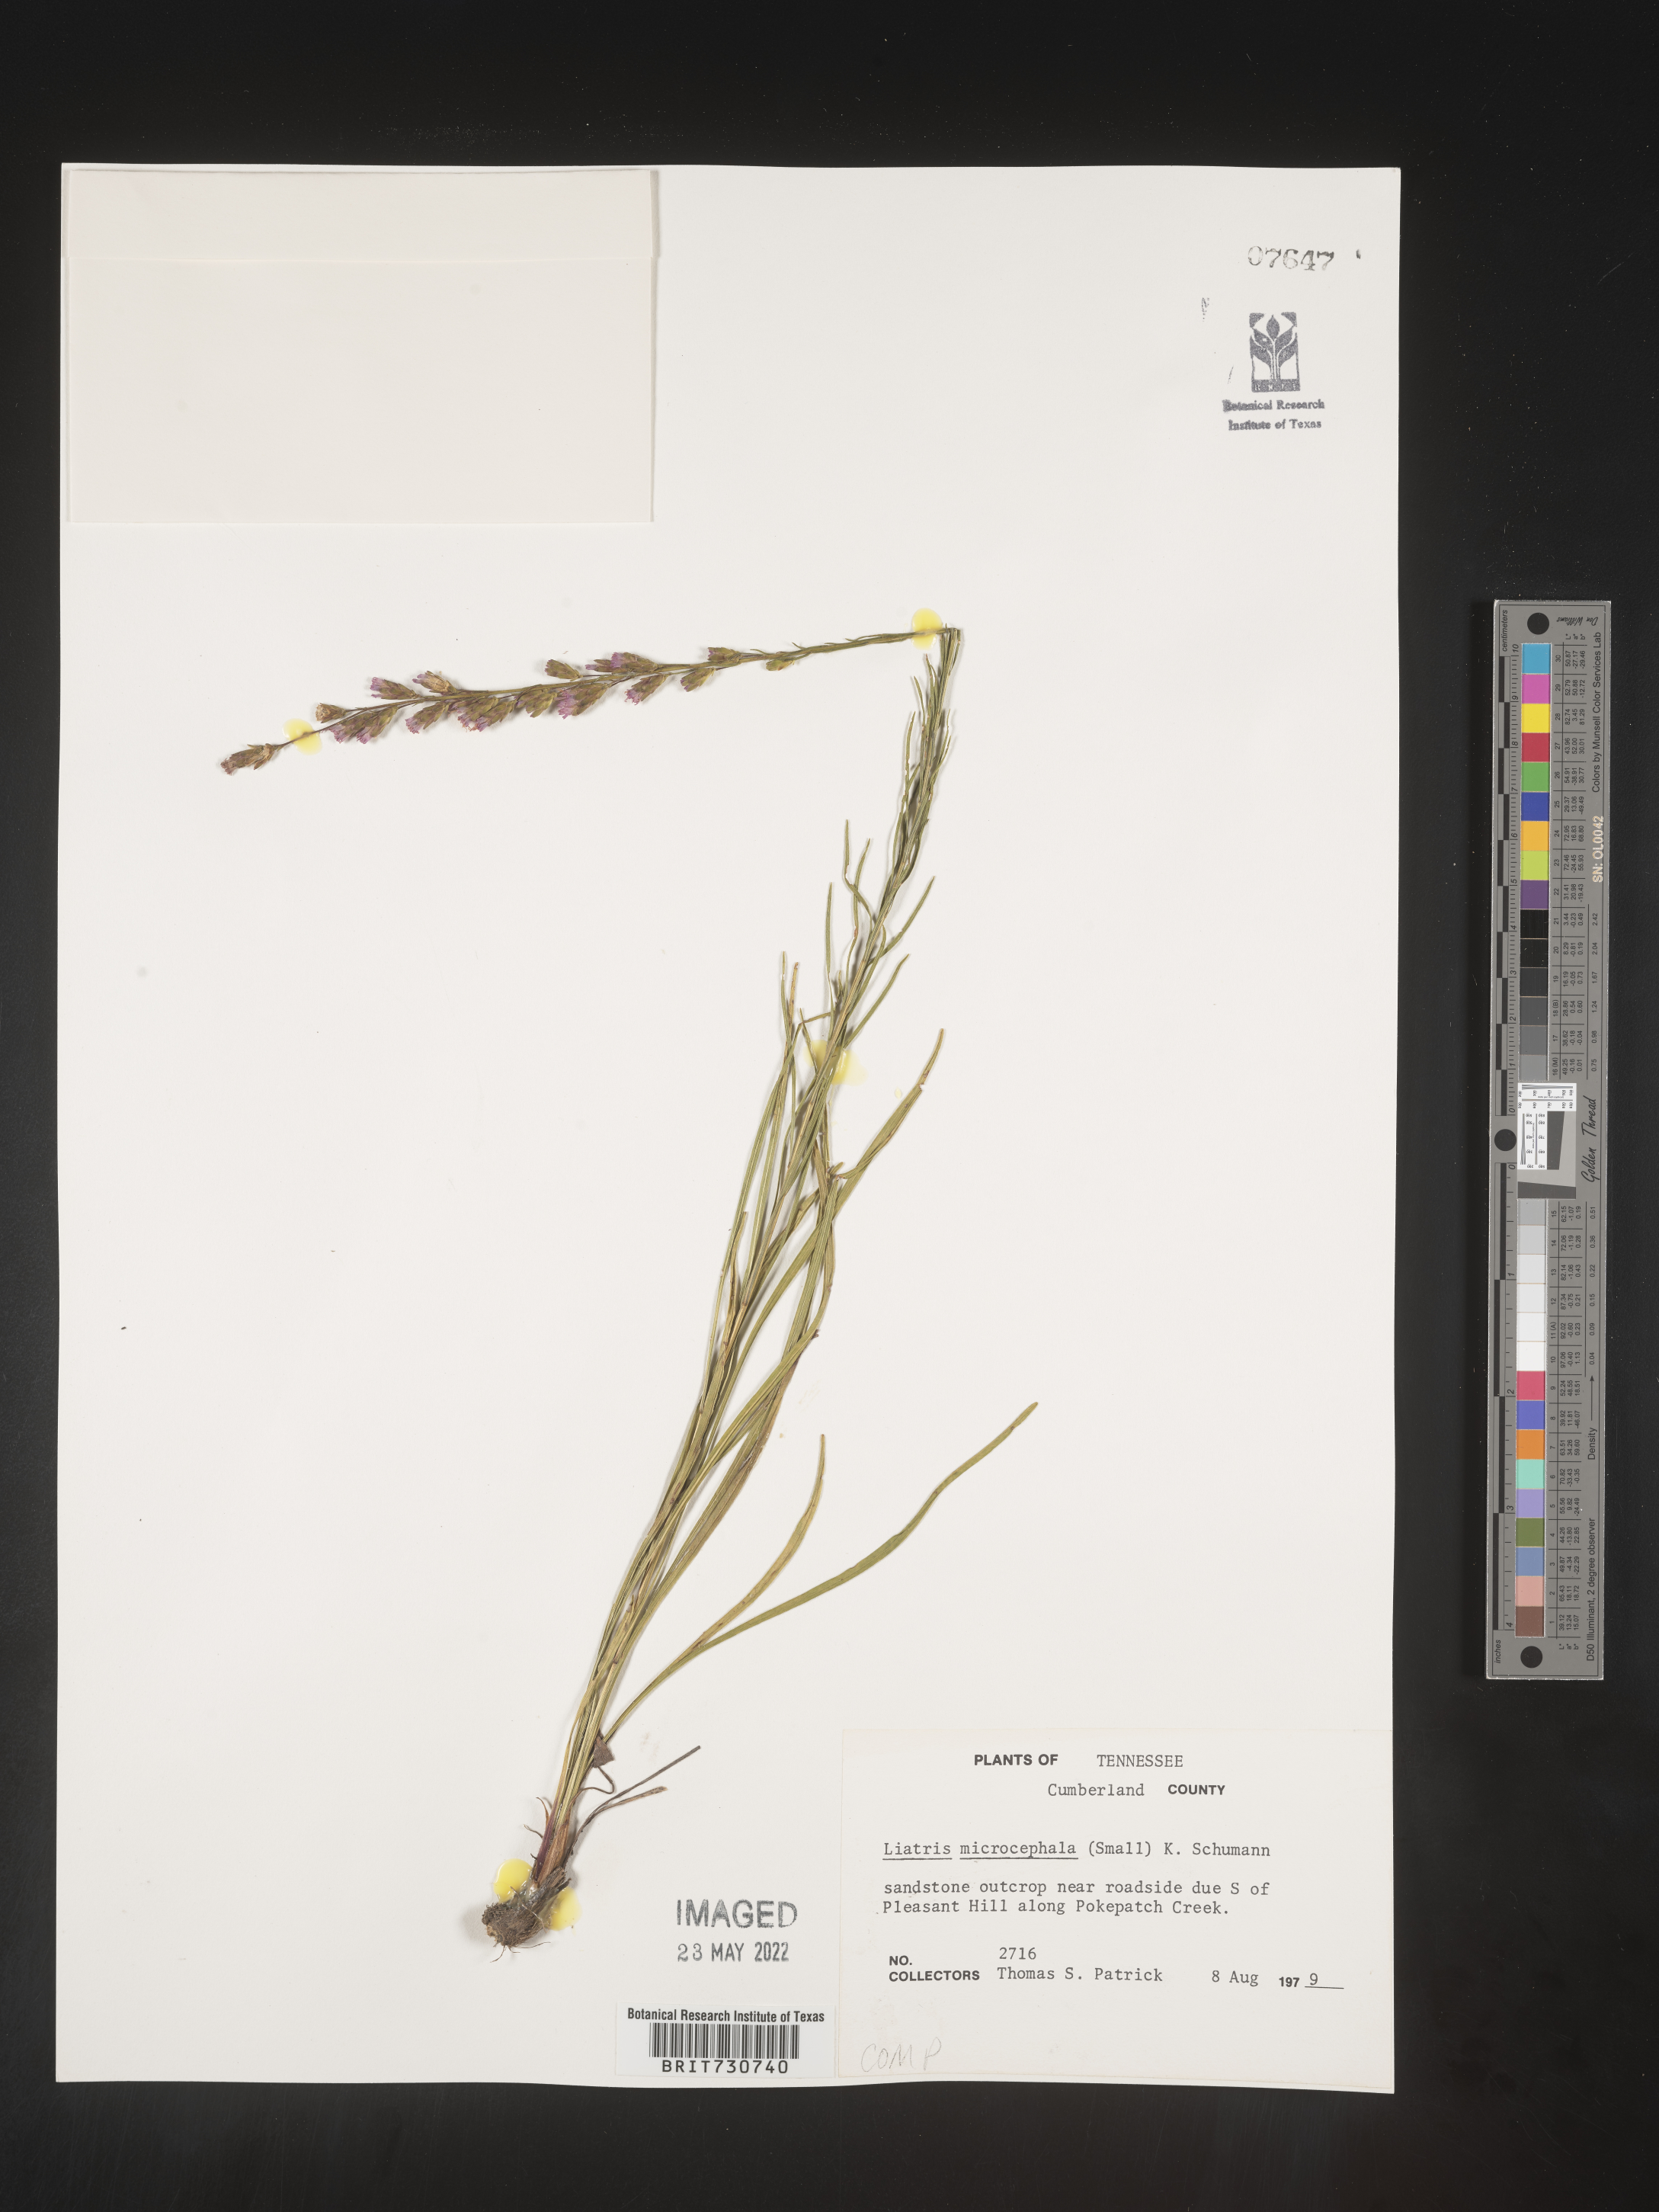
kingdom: Plantae
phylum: Tracheophyta
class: Magnoliopsida
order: Asterales
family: Asteraceae
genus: Liatris
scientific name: Liatris microcephala
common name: Small-head gayfeather
